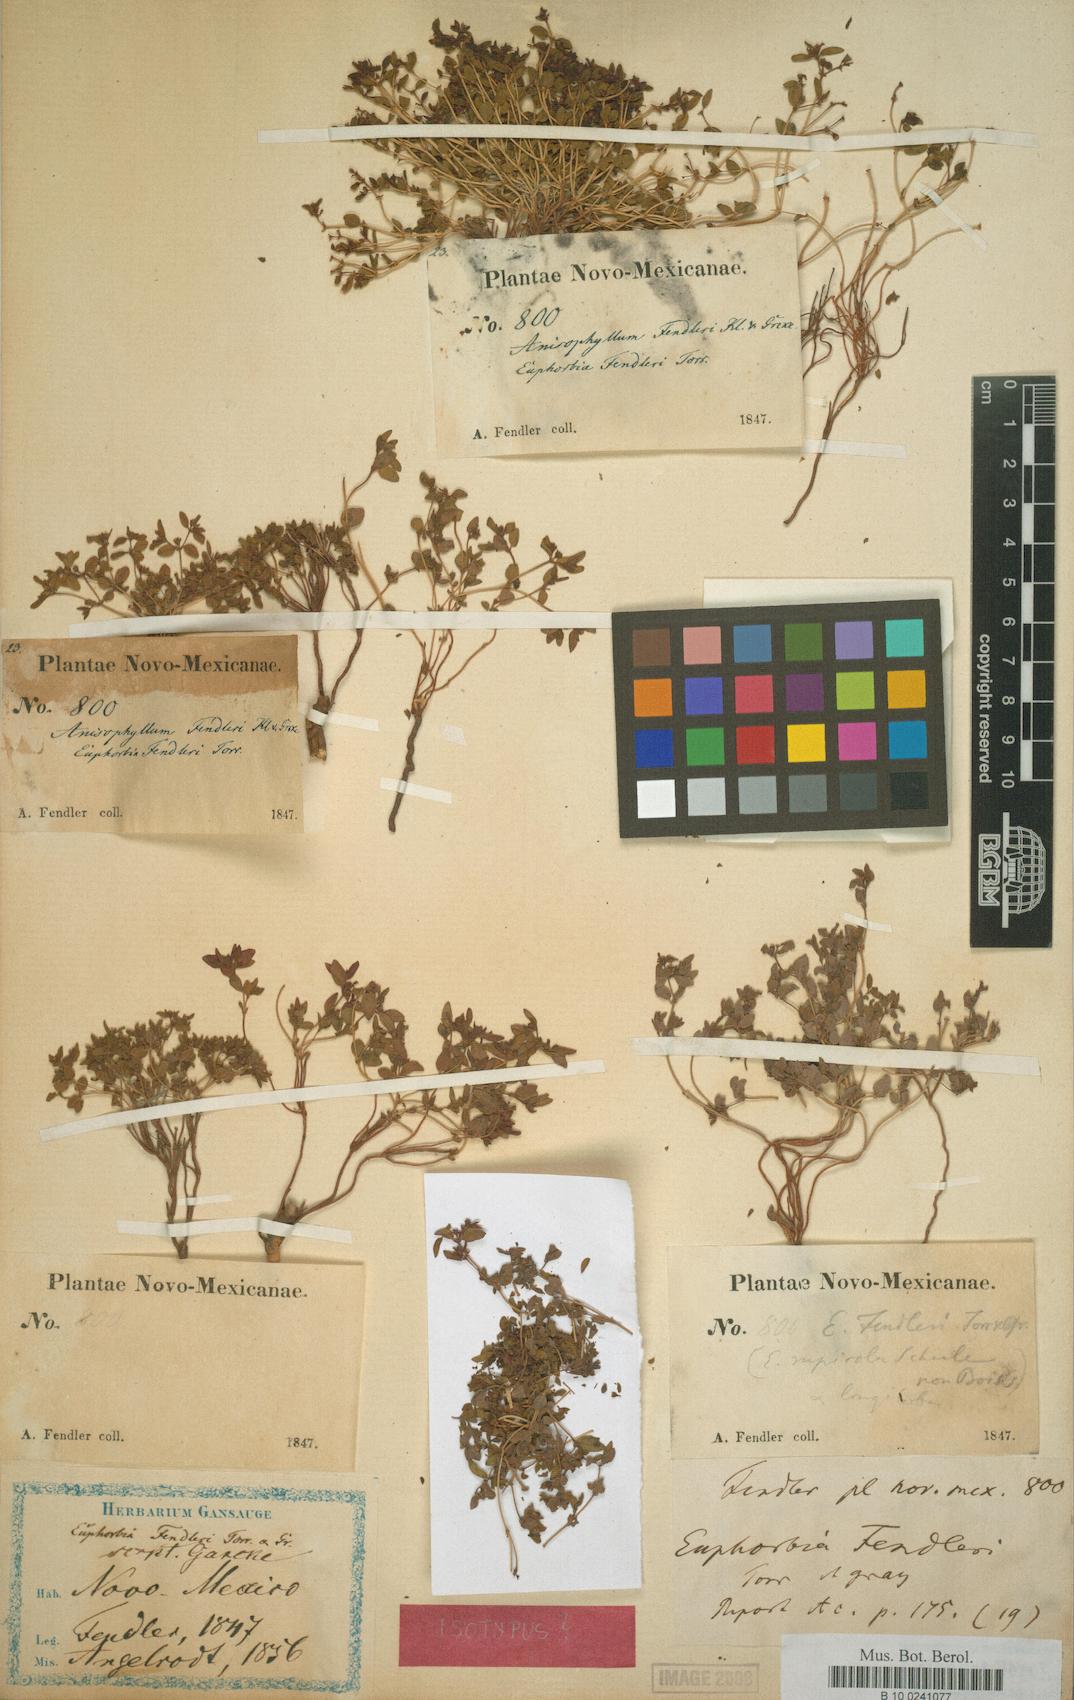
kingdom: Plantae
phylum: Tracheophyta
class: Magnoliopsida
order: Malpighiales
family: Euphorbiaceae
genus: Euphorbia
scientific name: Euphorbia fendleri
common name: Fendler's euphorbia
